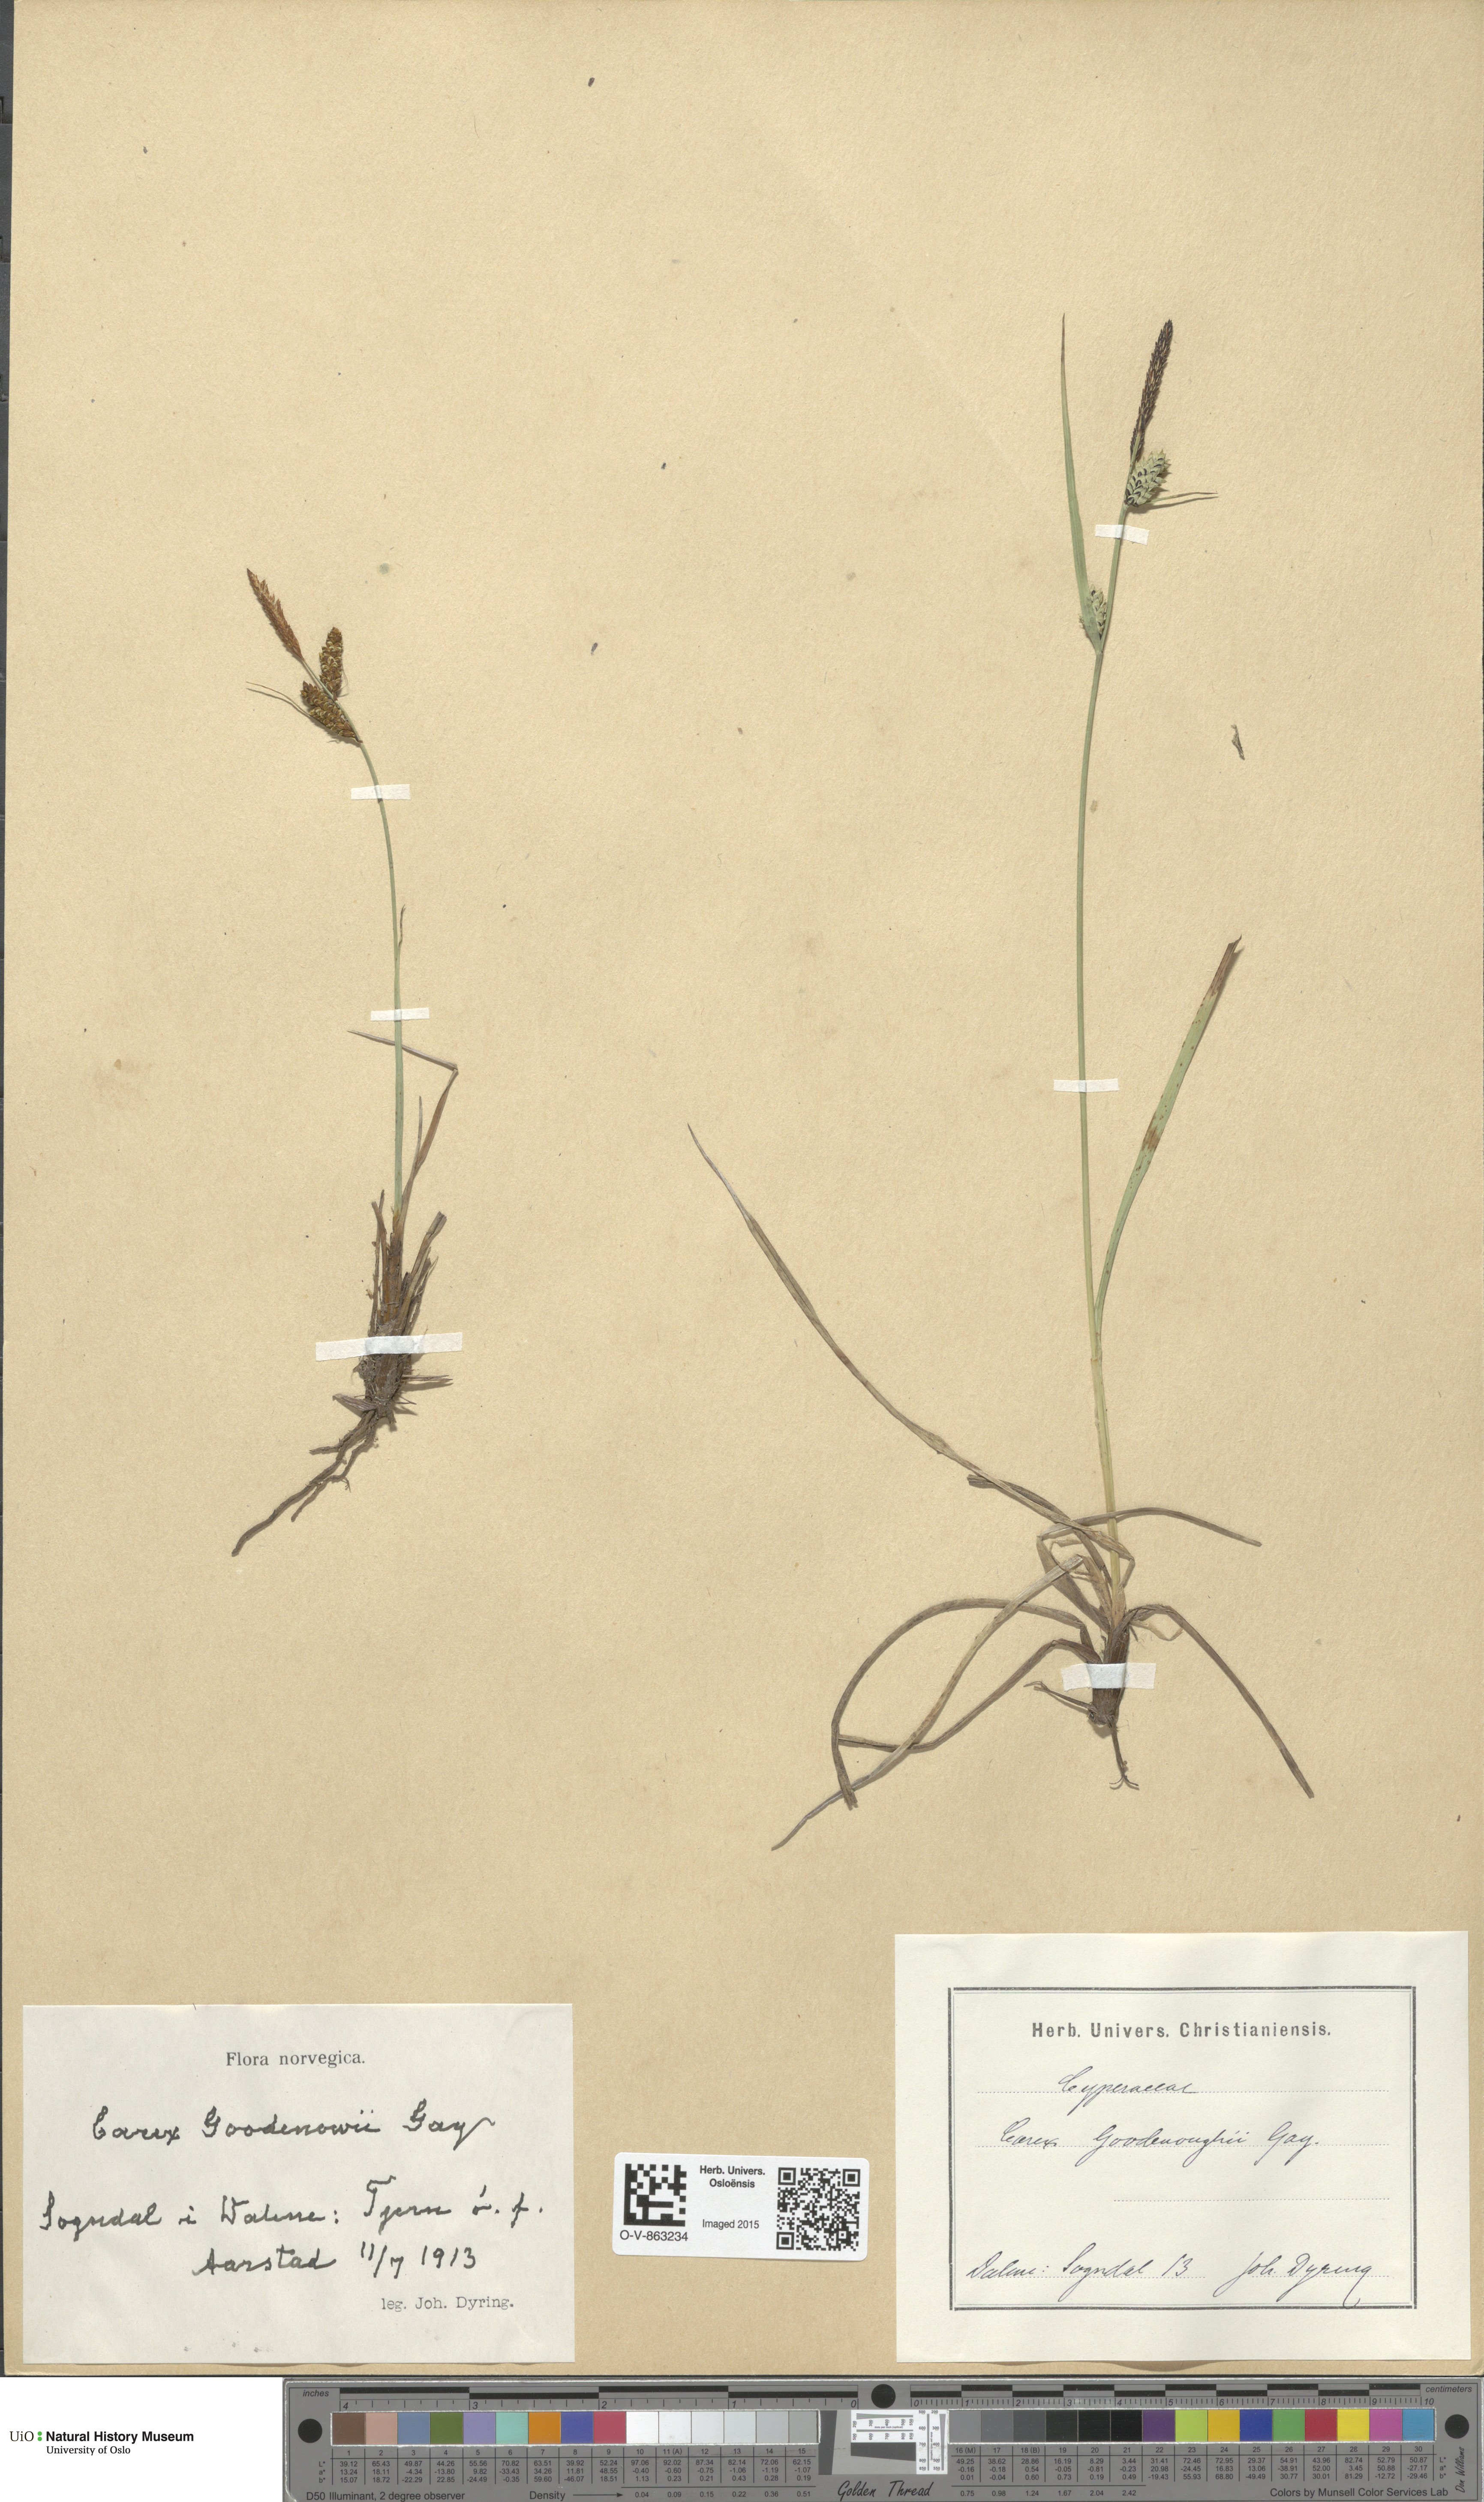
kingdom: Plantae
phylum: Tracheophyta
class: Liliopsida
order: Poales
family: Cyperaceae
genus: Carex
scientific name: Carex nigra
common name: Common sedge
